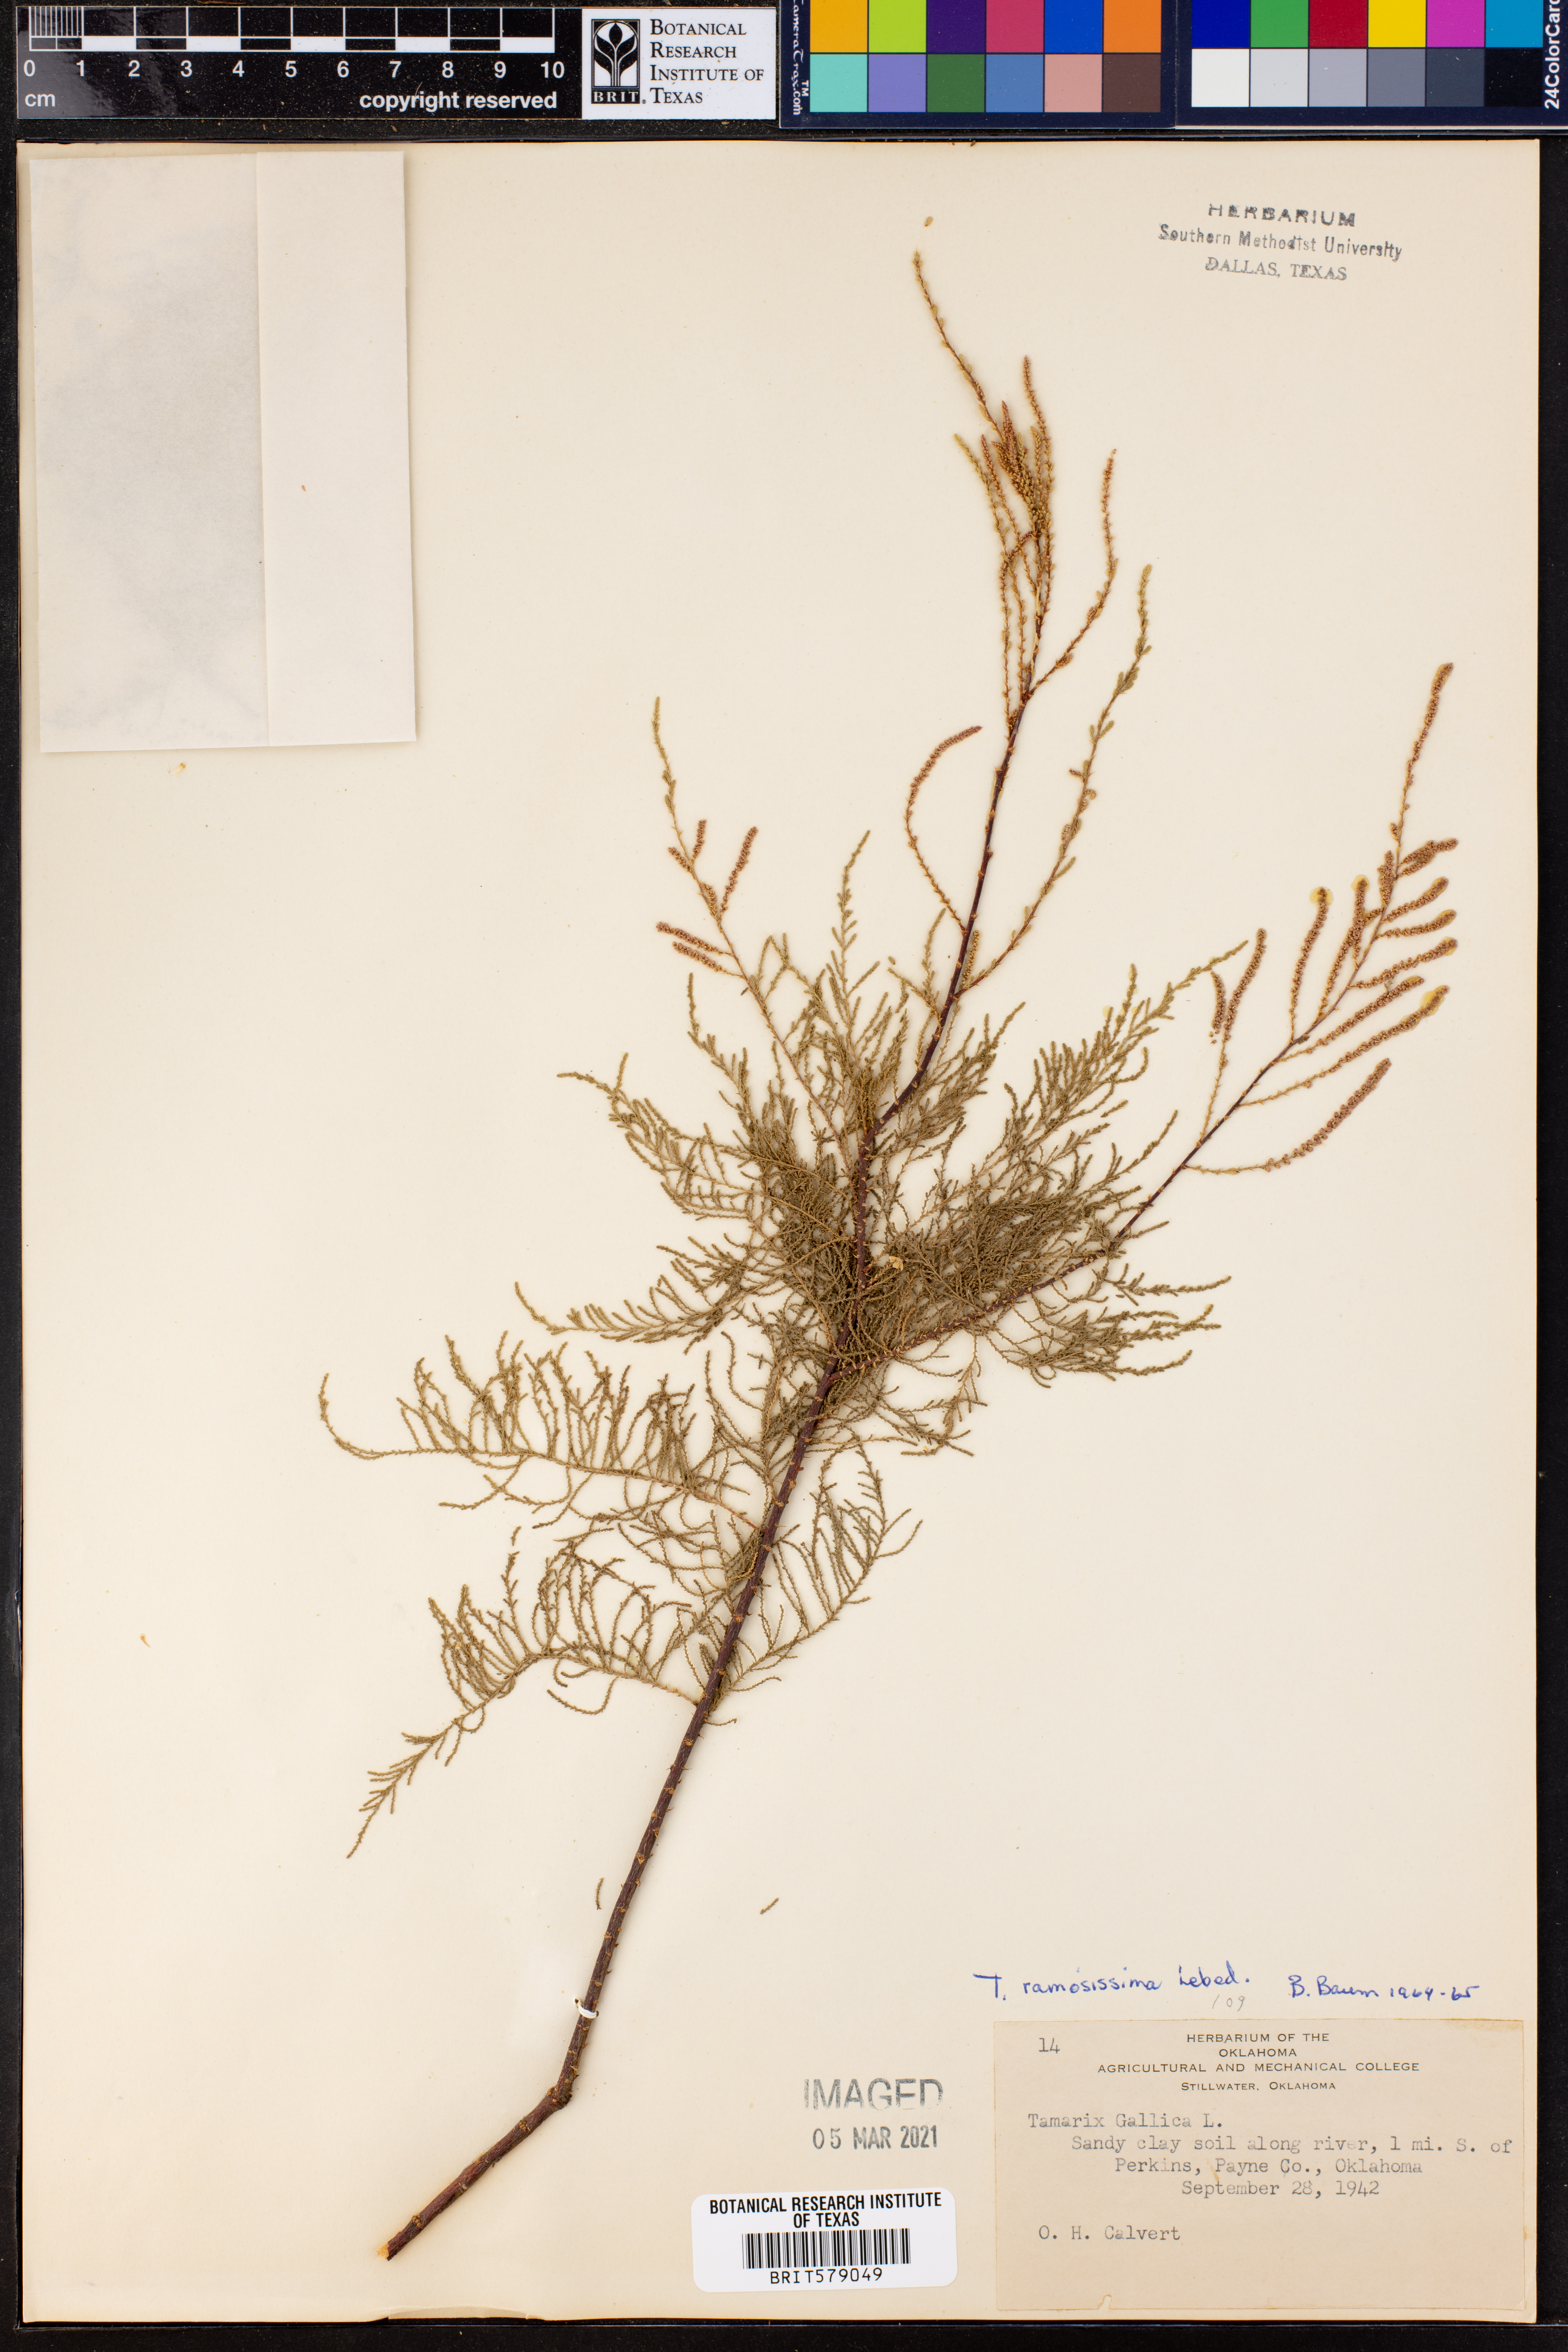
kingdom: Plantae
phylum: Tracheophyta
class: Magnoliopsida
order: Caryophyllales
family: Tamaricaceae
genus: Tamarix
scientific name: Tamarix ramosissima
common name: Pink tamarisk
